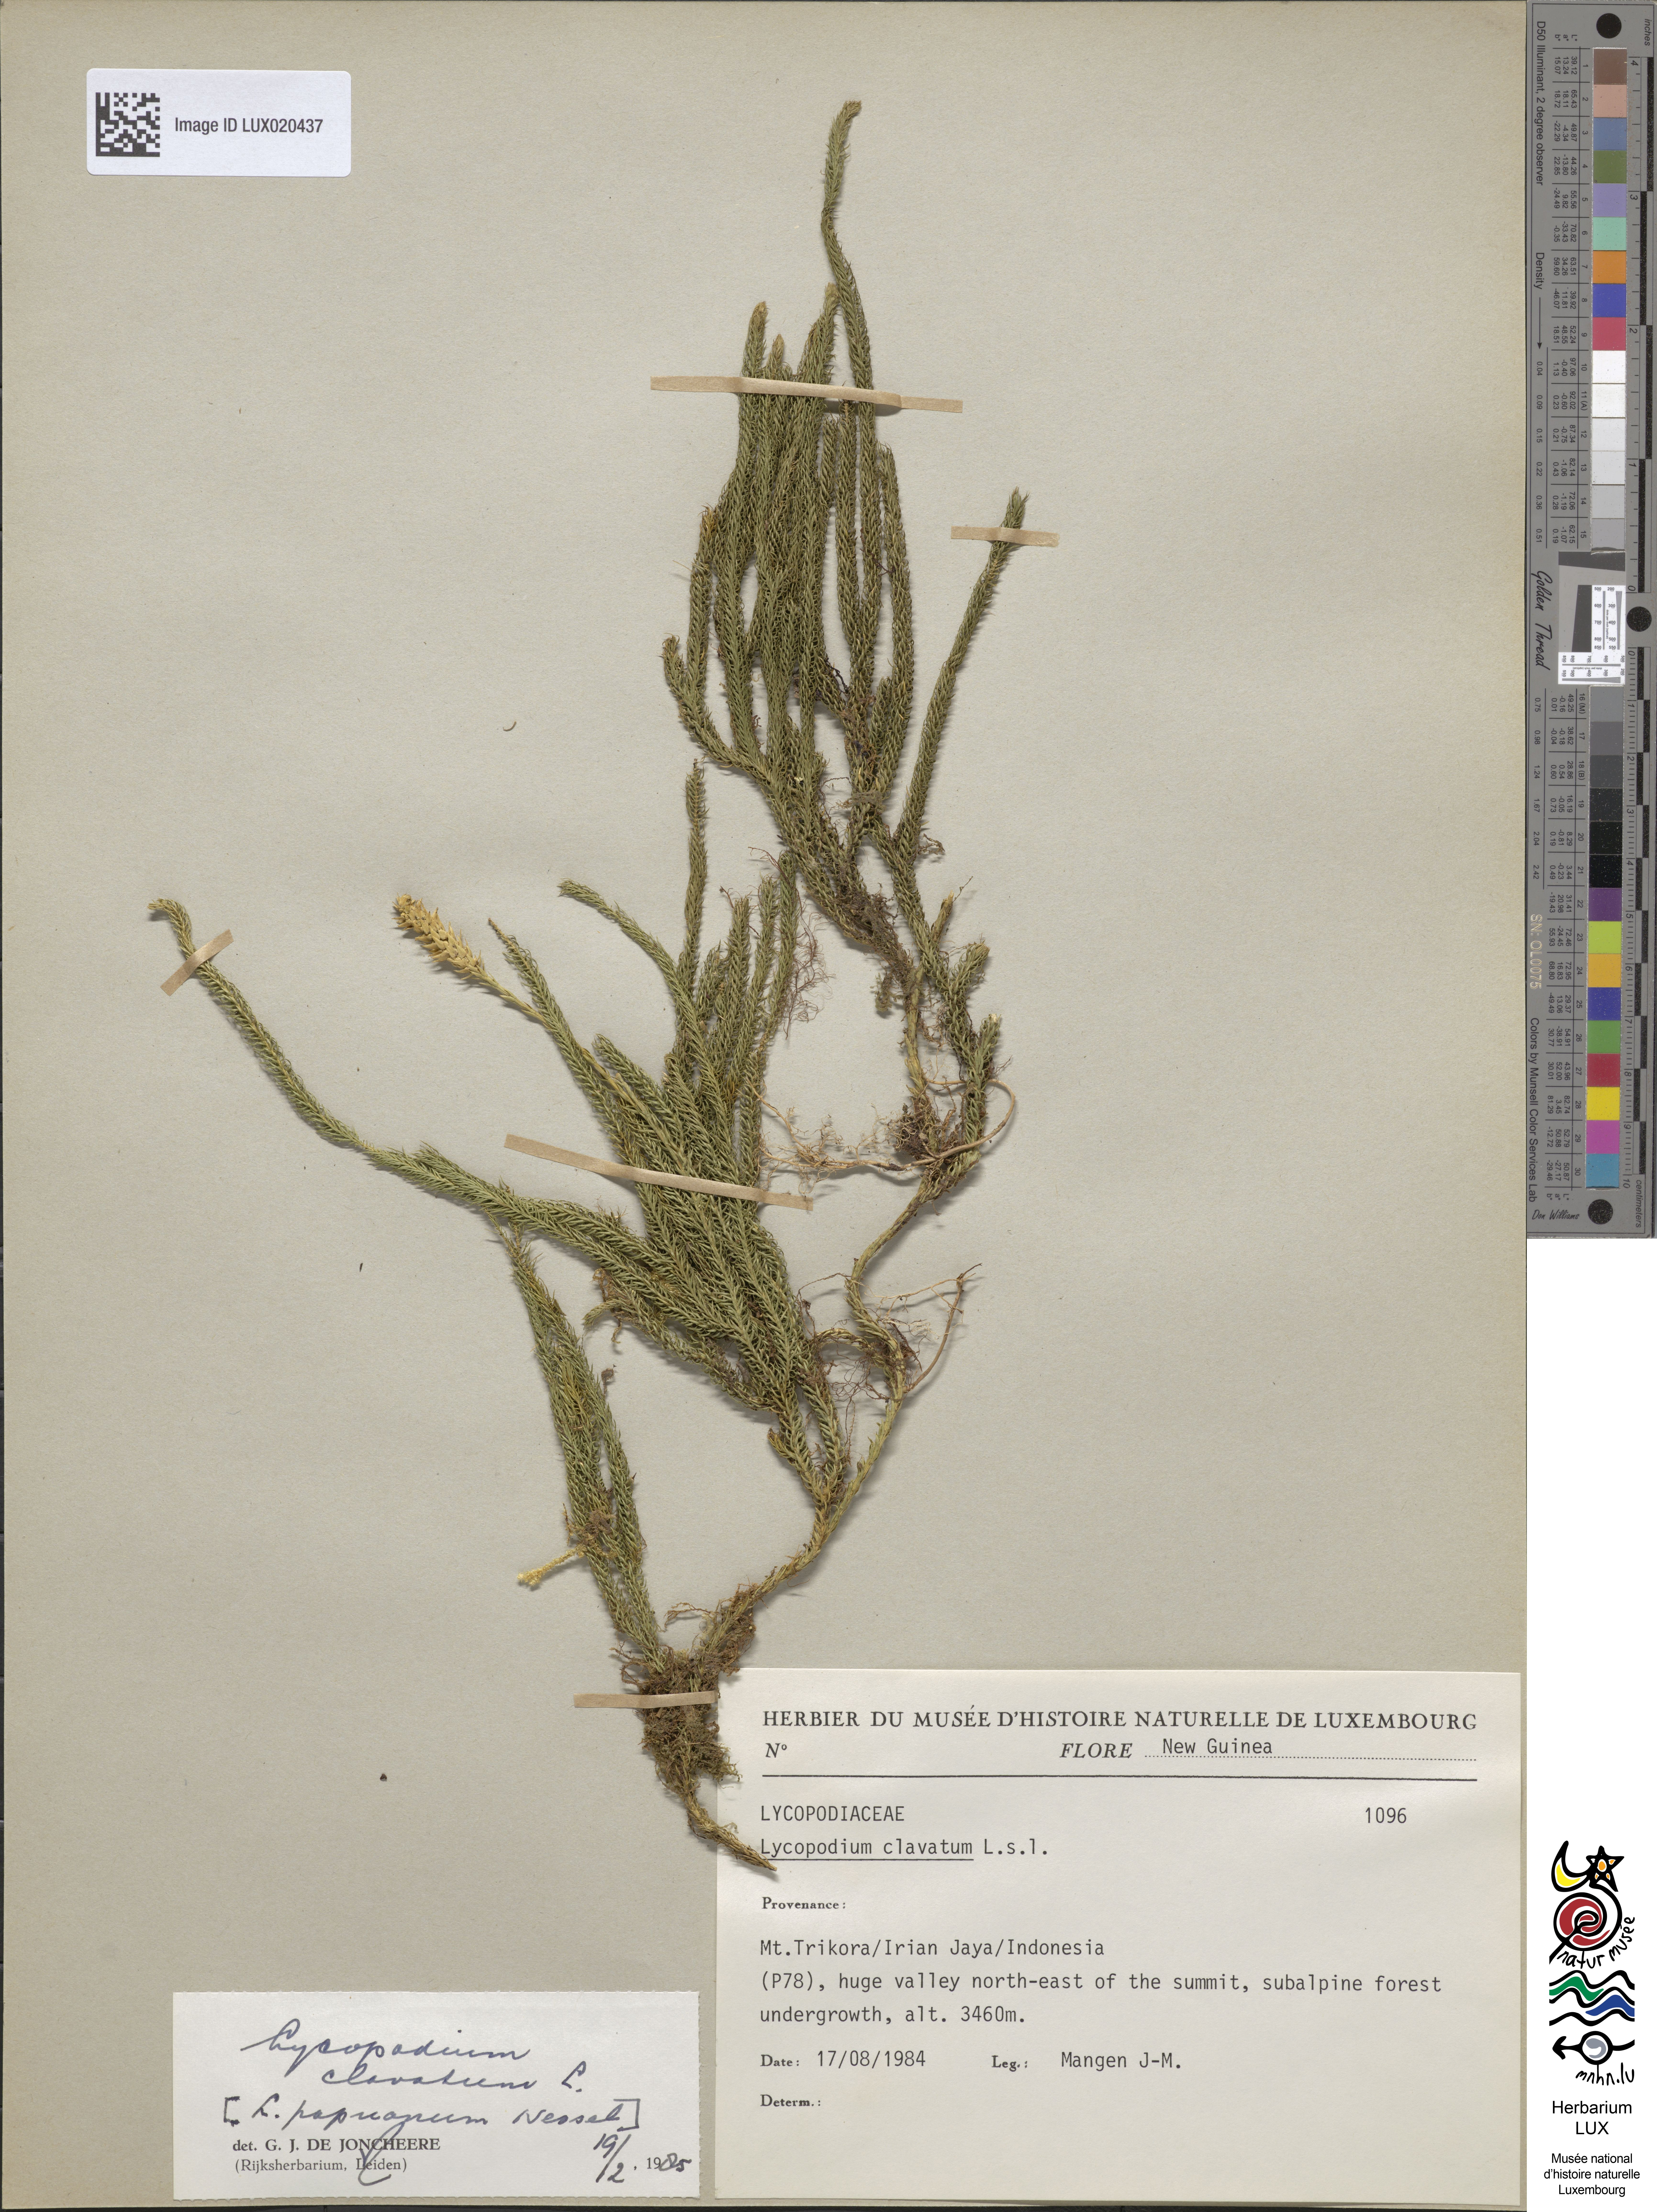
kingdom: Plantae
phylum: Tracheophyta
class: Lycopodiopsida
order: Lycopodiales
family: Lycopodiaceae
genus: Lycopodium
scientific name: Lycopodium clavatum
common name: Stag's-horn clubmoss
